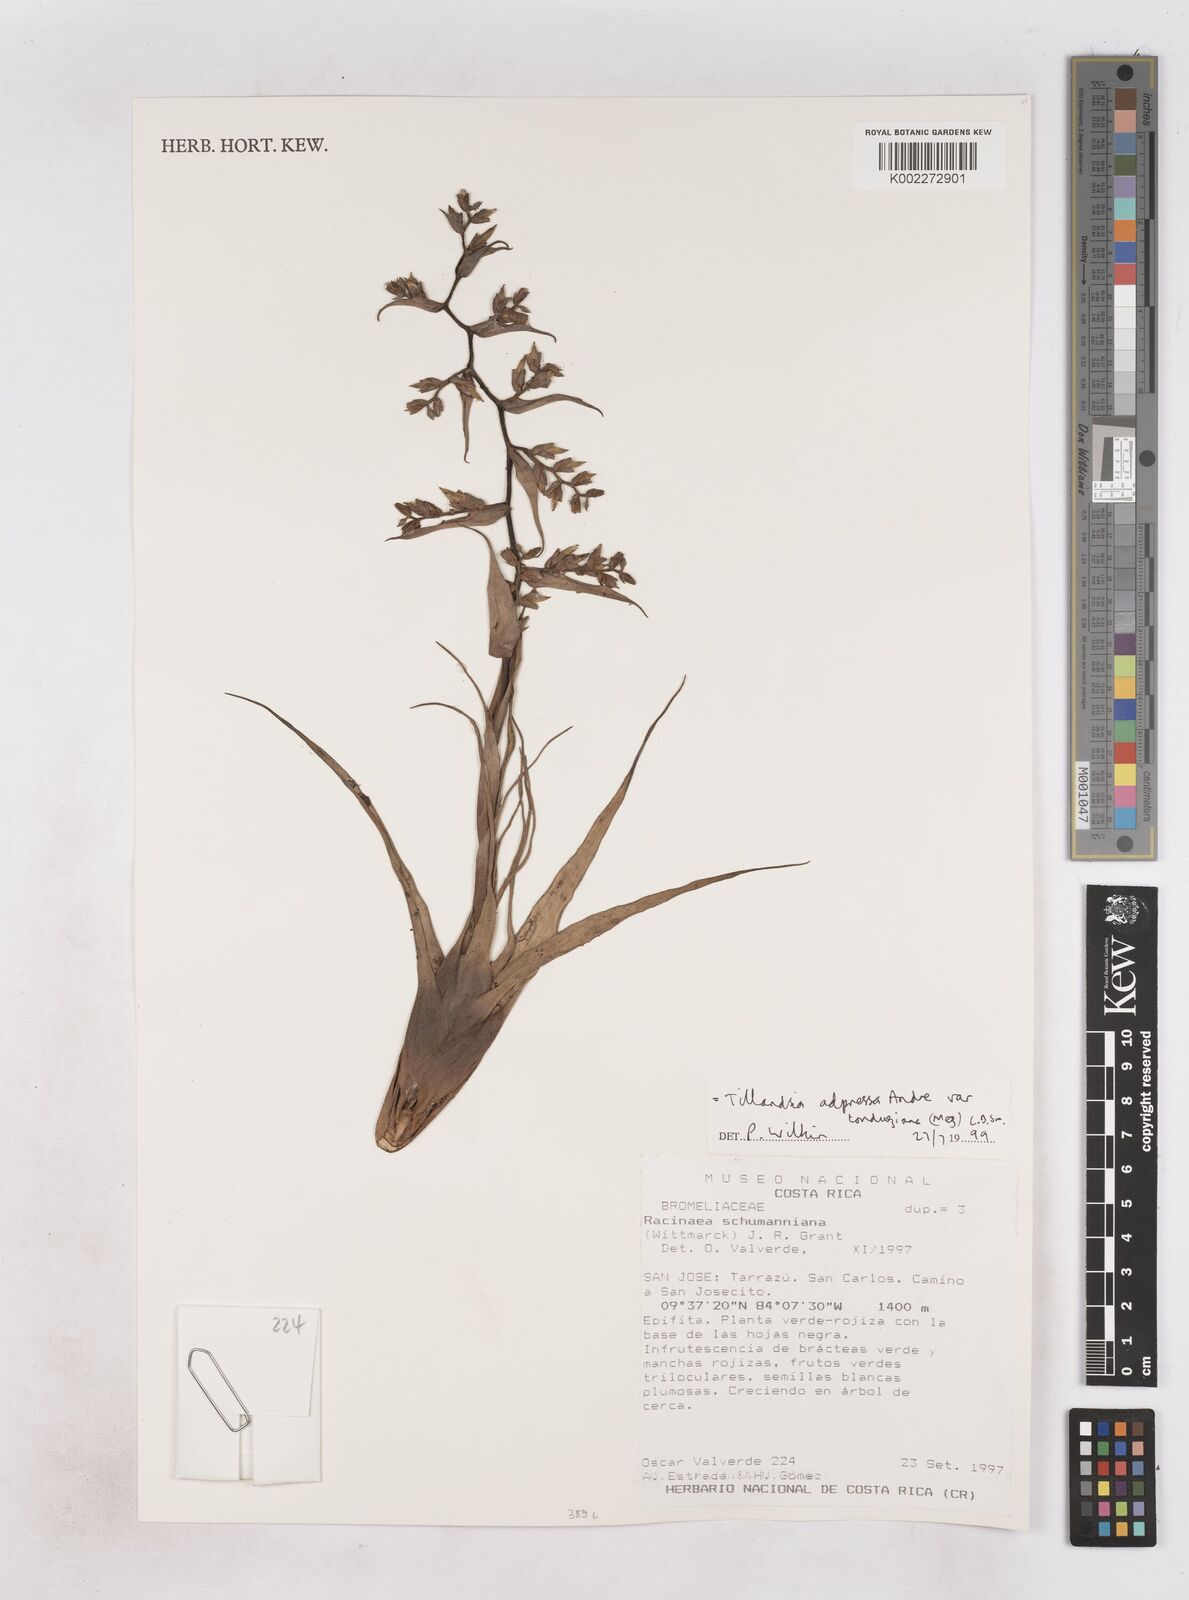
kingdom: Plantae
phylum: Tracheophyta
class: Liliopsida
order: Poales
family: Bromeliaceae
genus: Racinaea
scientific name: Racinaea schumanniana
